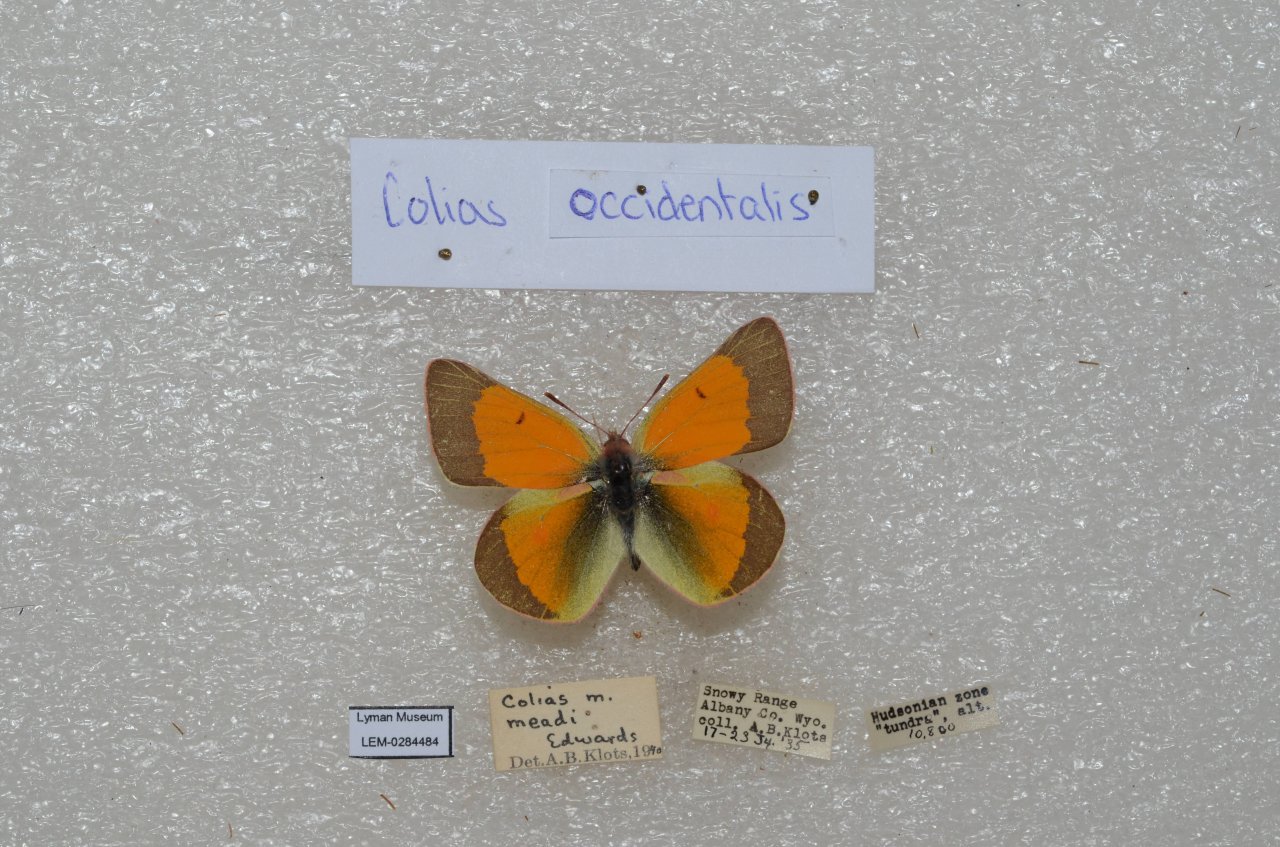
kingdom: Animalia
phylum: Arthropoda
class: Insecta
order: Lepidoptera
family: Pieridae
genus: Colias
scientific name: Colias occidentalis
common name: Western Sulphur
